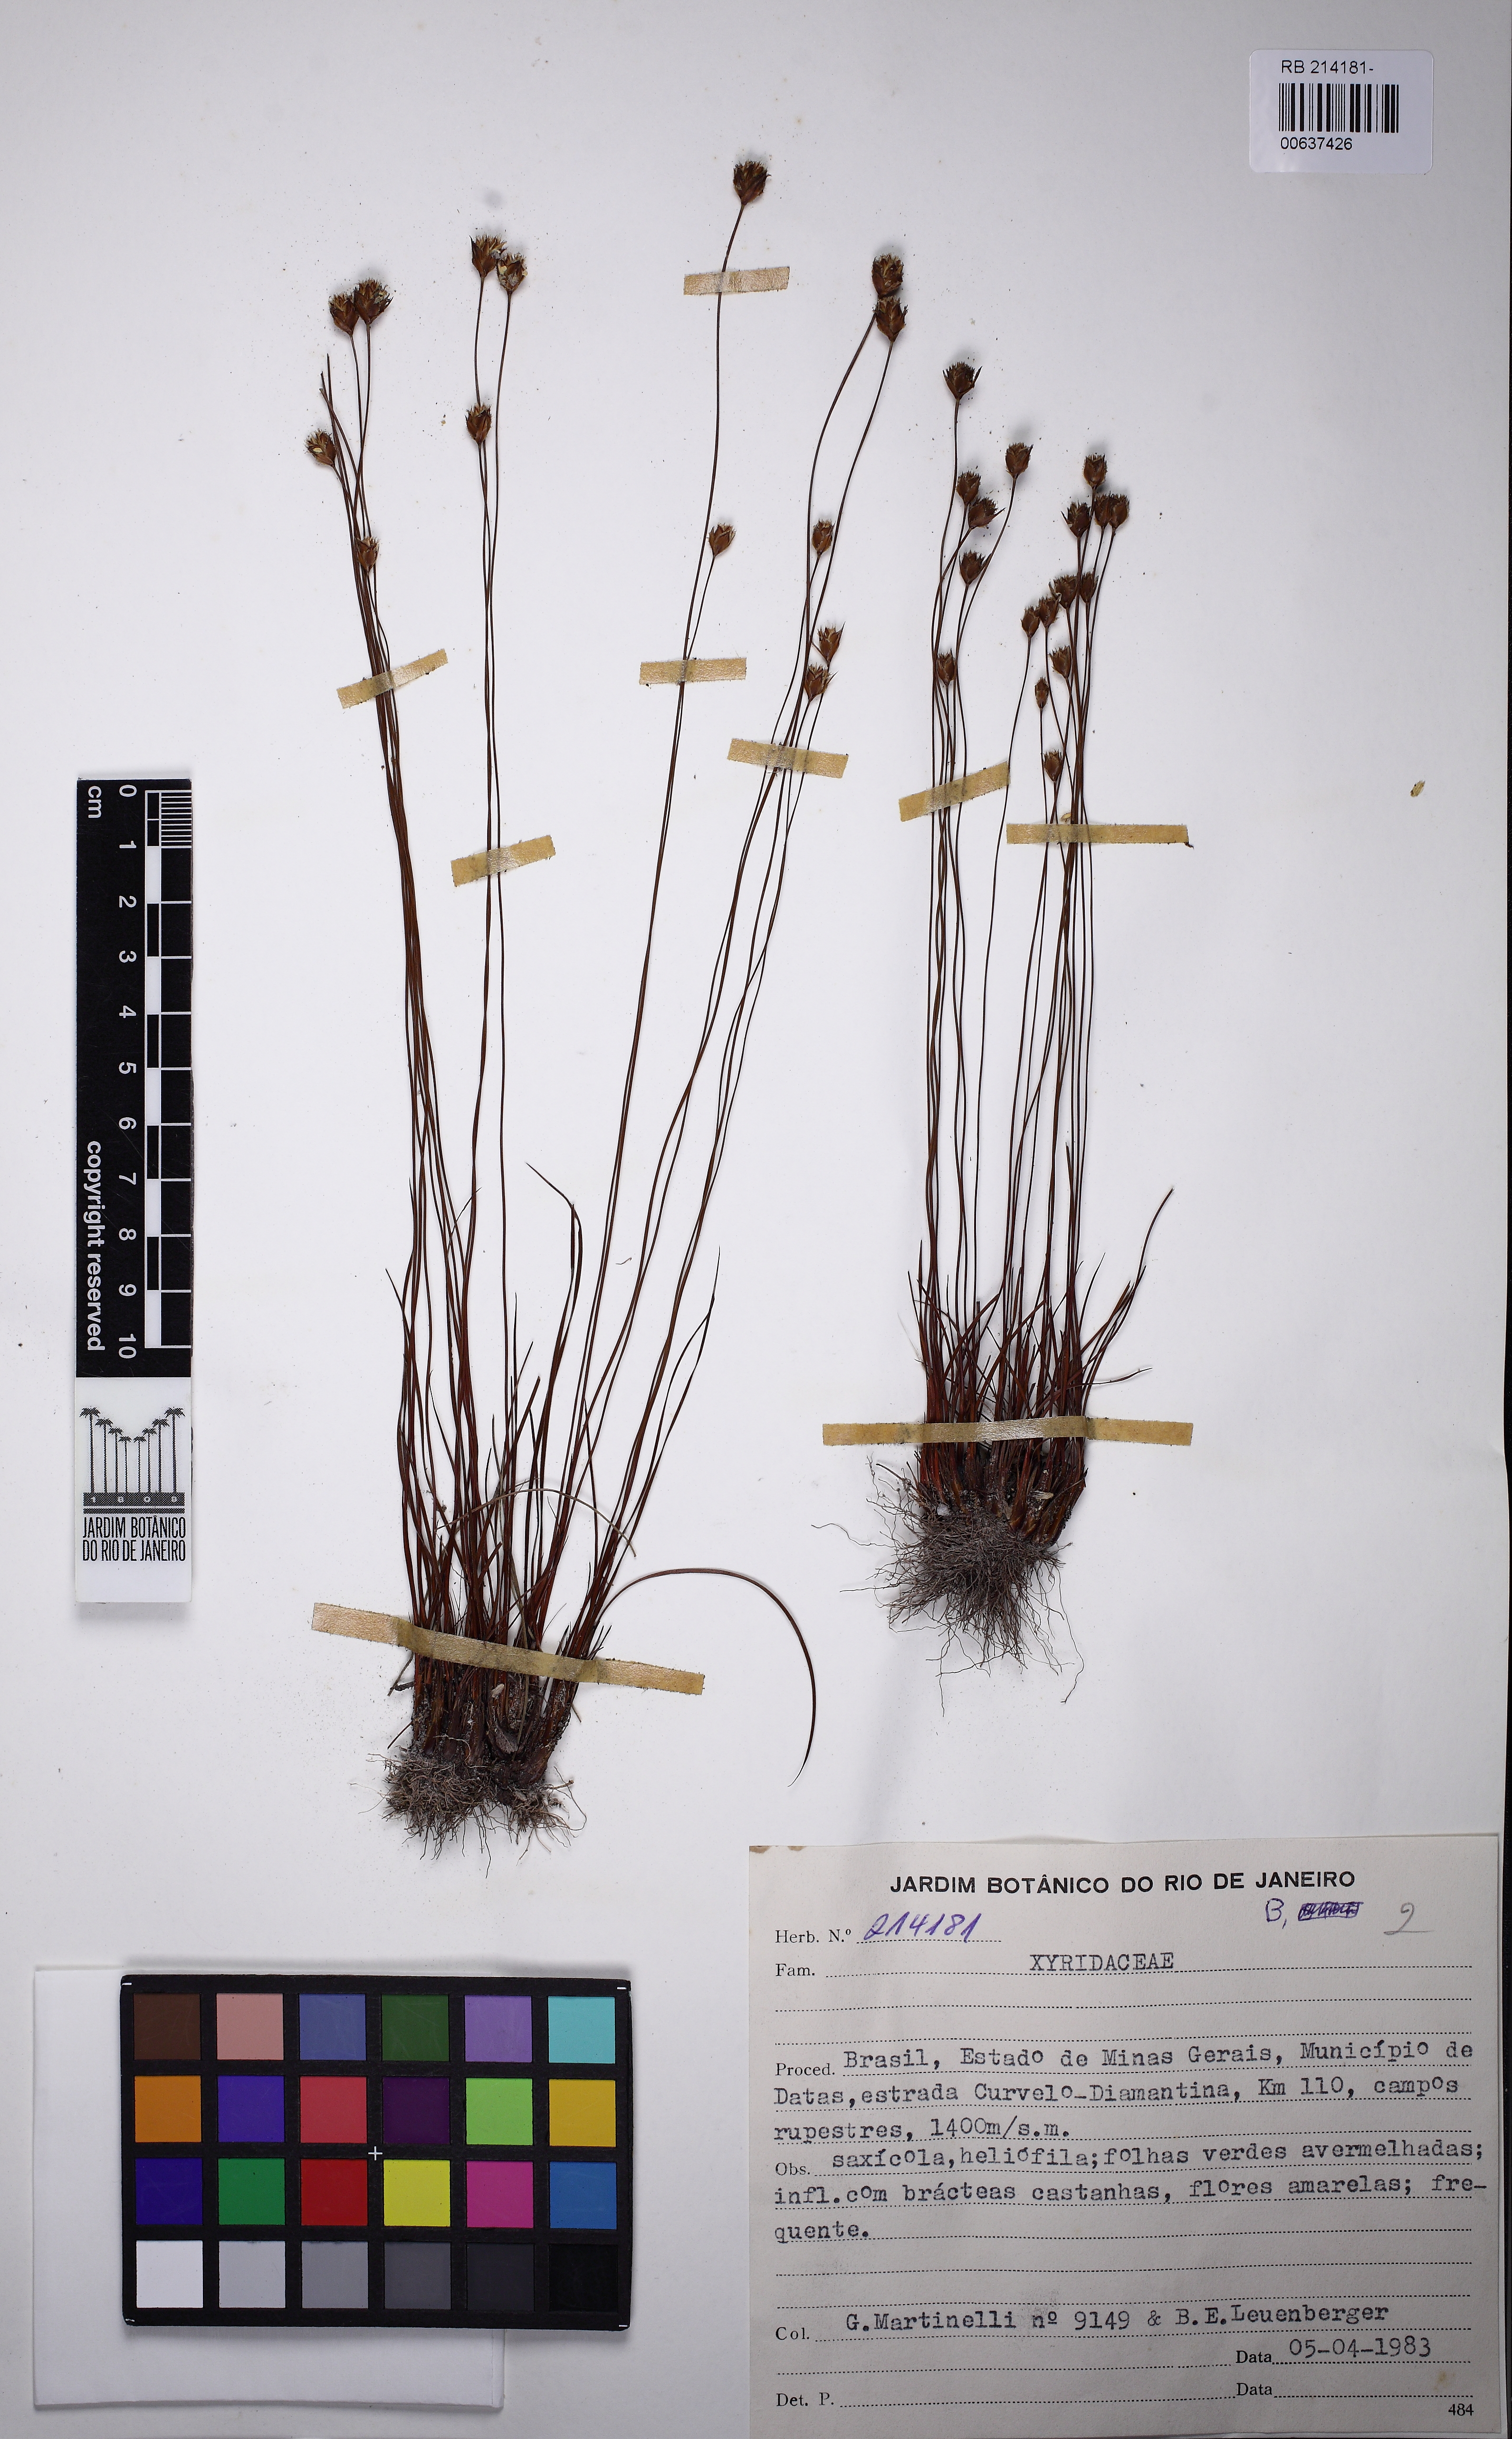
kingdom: Plantae
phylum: Tracheophyta
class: Liliopsida
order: Poales
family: Xyridaceae
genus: Xyris
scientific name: Xyris minarum
